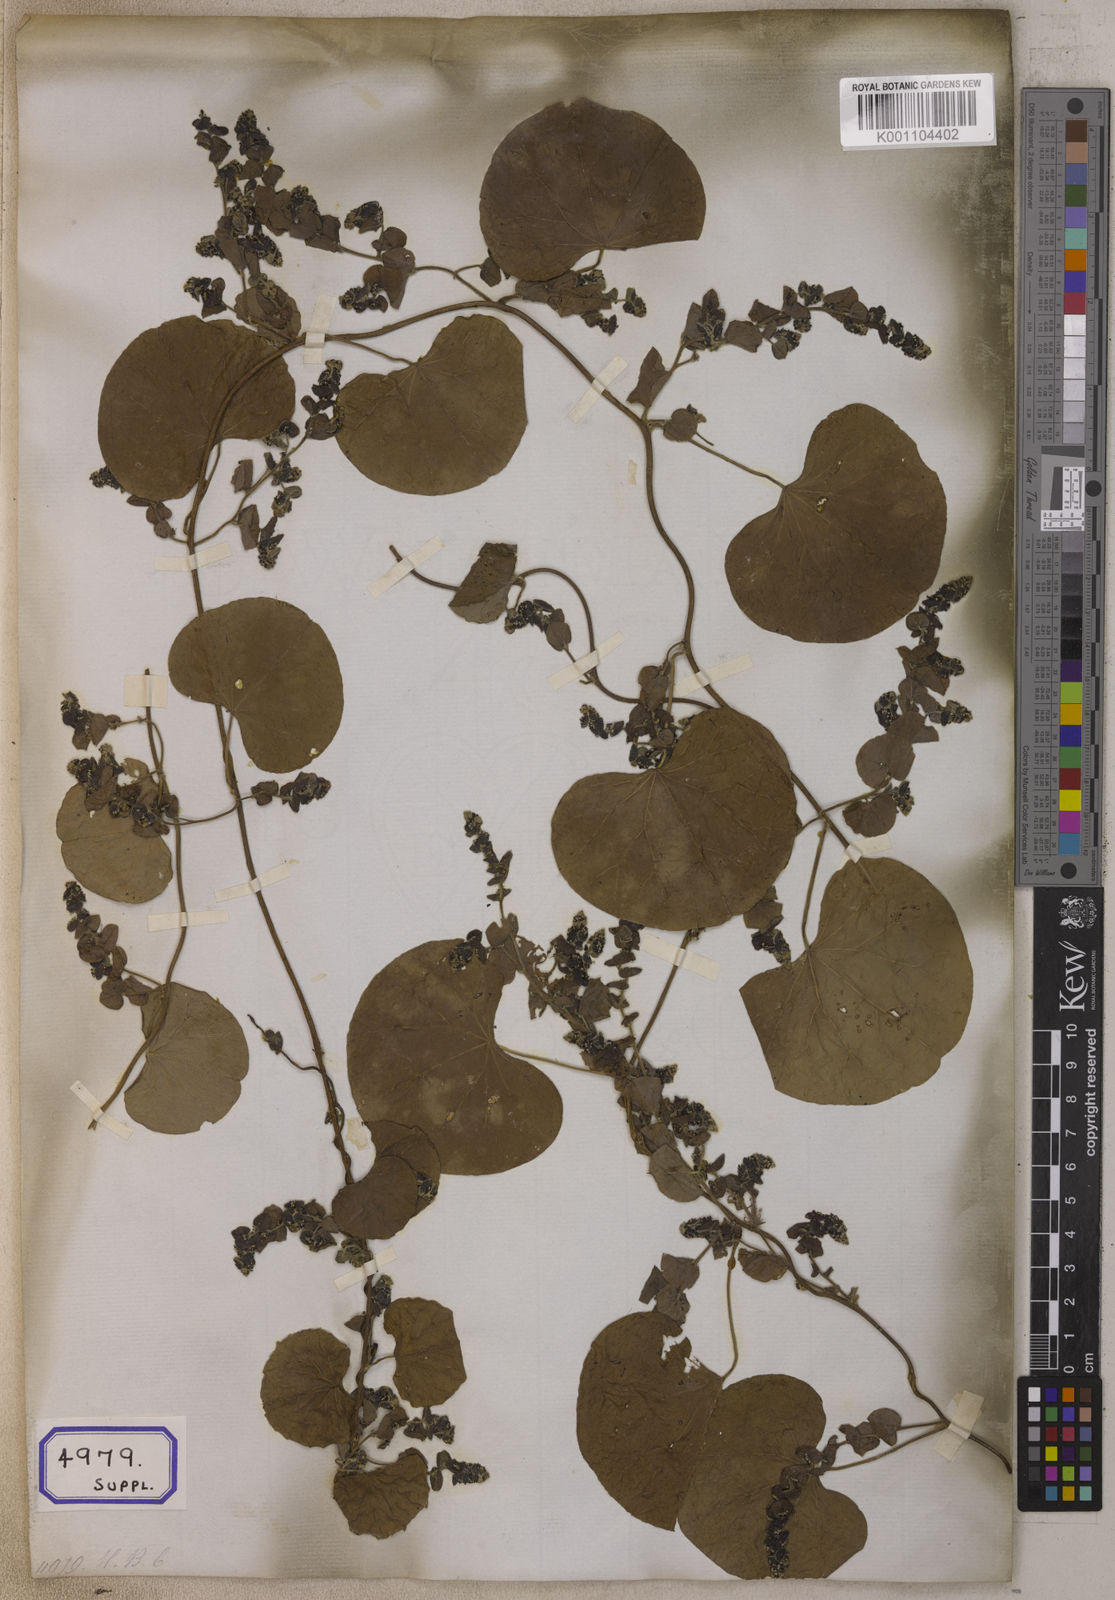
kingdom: Plantae
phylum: Tracheophyta
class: Magnoliopsida
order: Ranunculales
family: Menispermaceae
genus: Cissampelos
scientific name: Cissampelos pareira
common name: Velvetleaf
